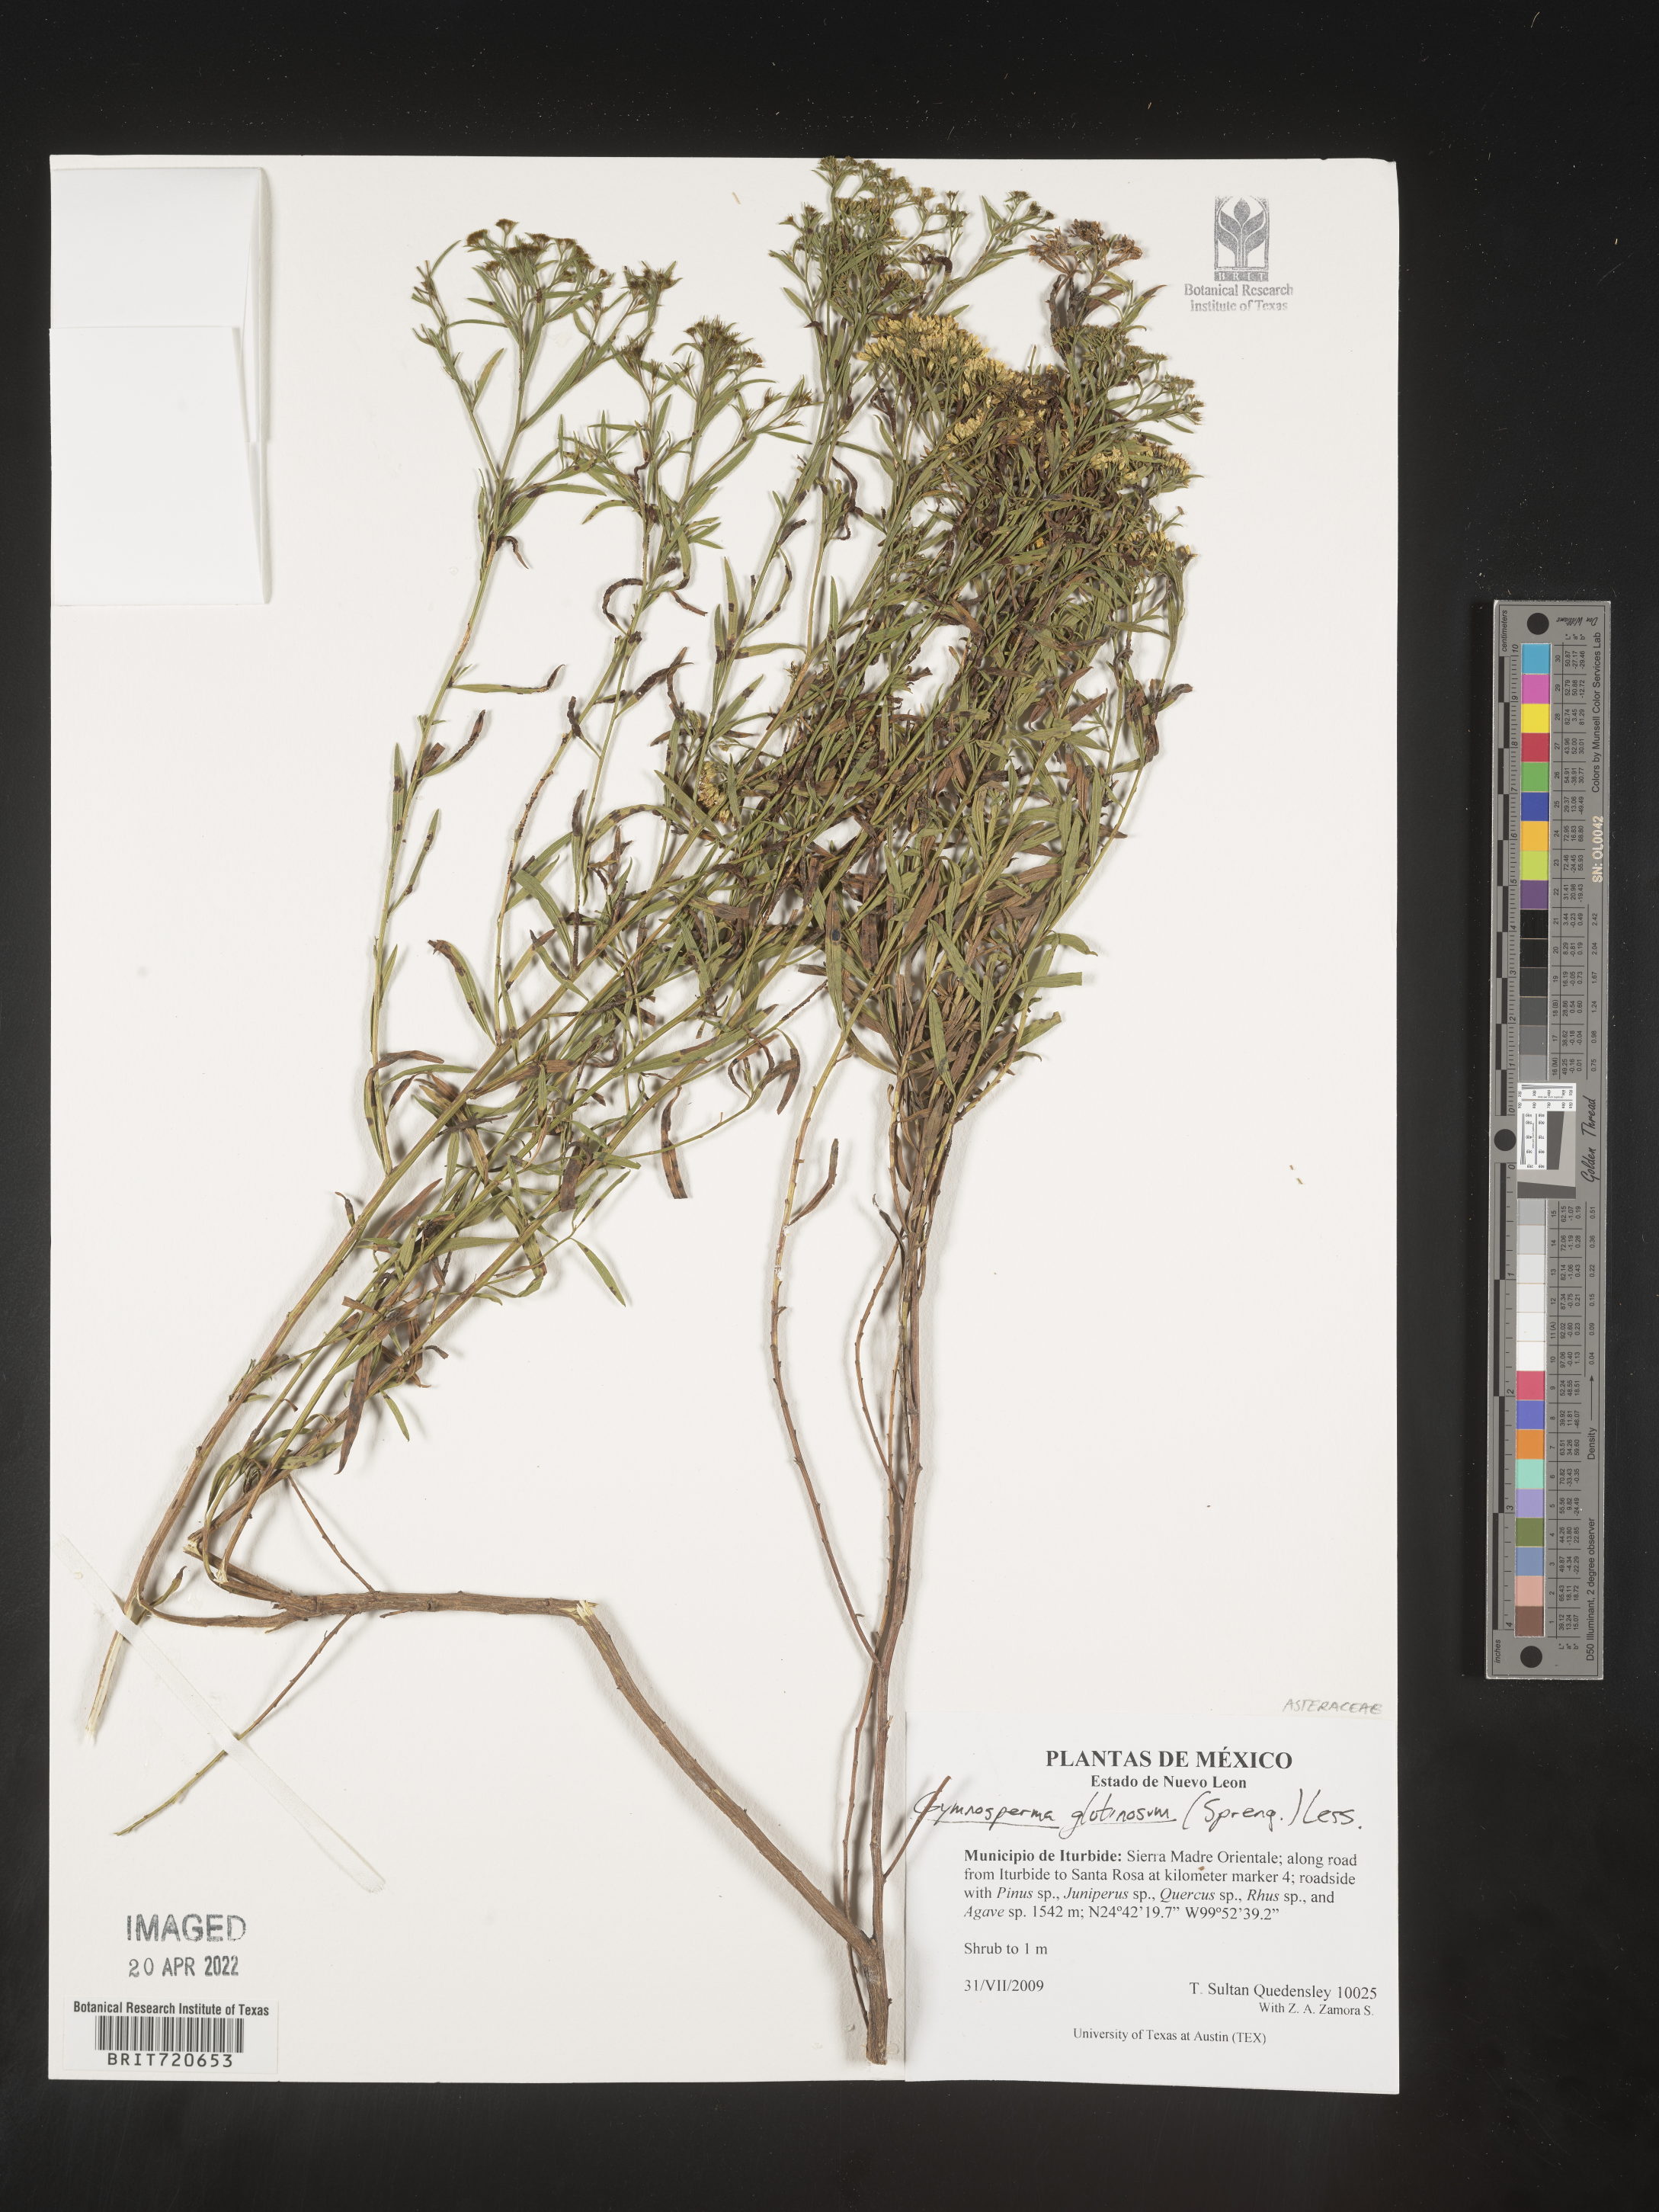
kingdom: Plantae
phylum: Tracheophyta
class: Magnoliopsida
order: Asterales
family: Asteraceae
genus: Gymnosperma
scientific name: Gymnosperma glutinosum
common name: Gumhead
